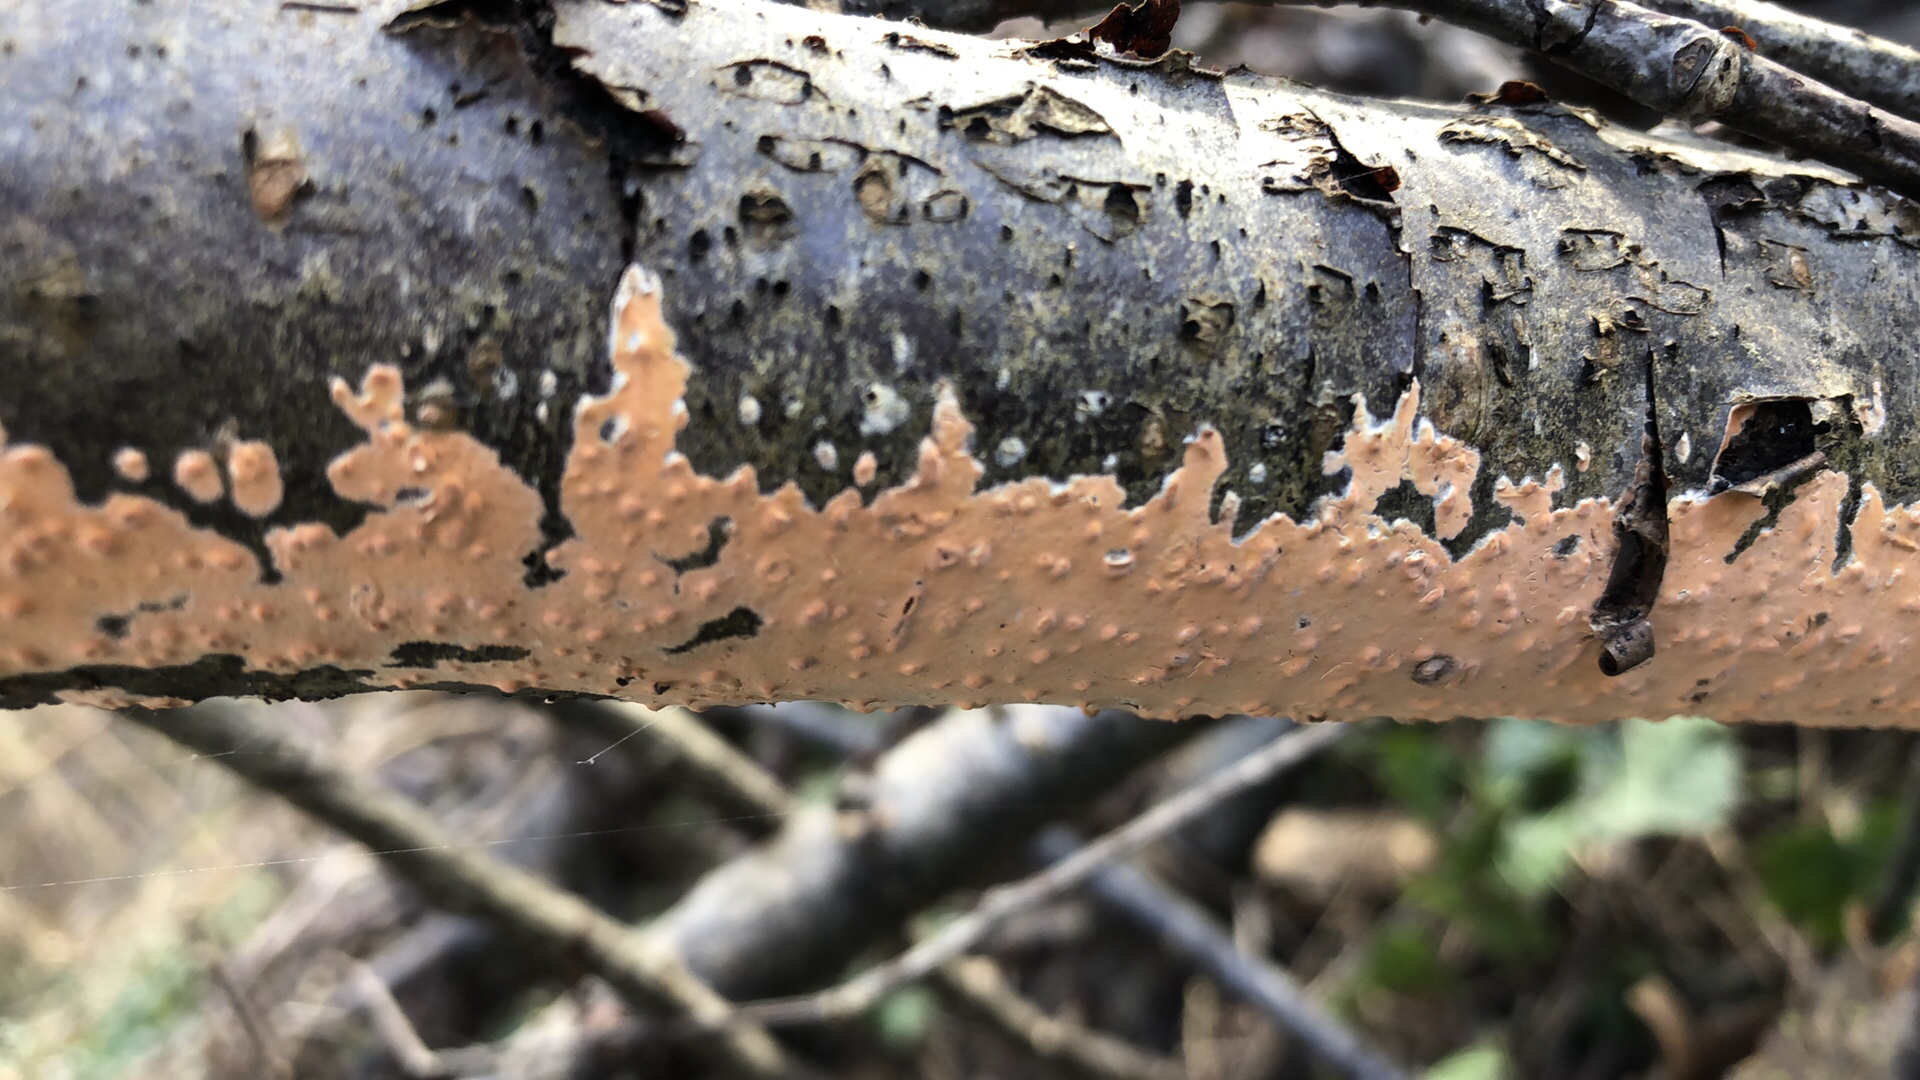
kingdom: Fungi
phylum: Basidiomycota
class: Agaricomycetes
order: Russulales
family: Peniophoraceae
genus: Peniophora
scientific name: Peniophora incarnata
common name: laksefarvet voksskind
